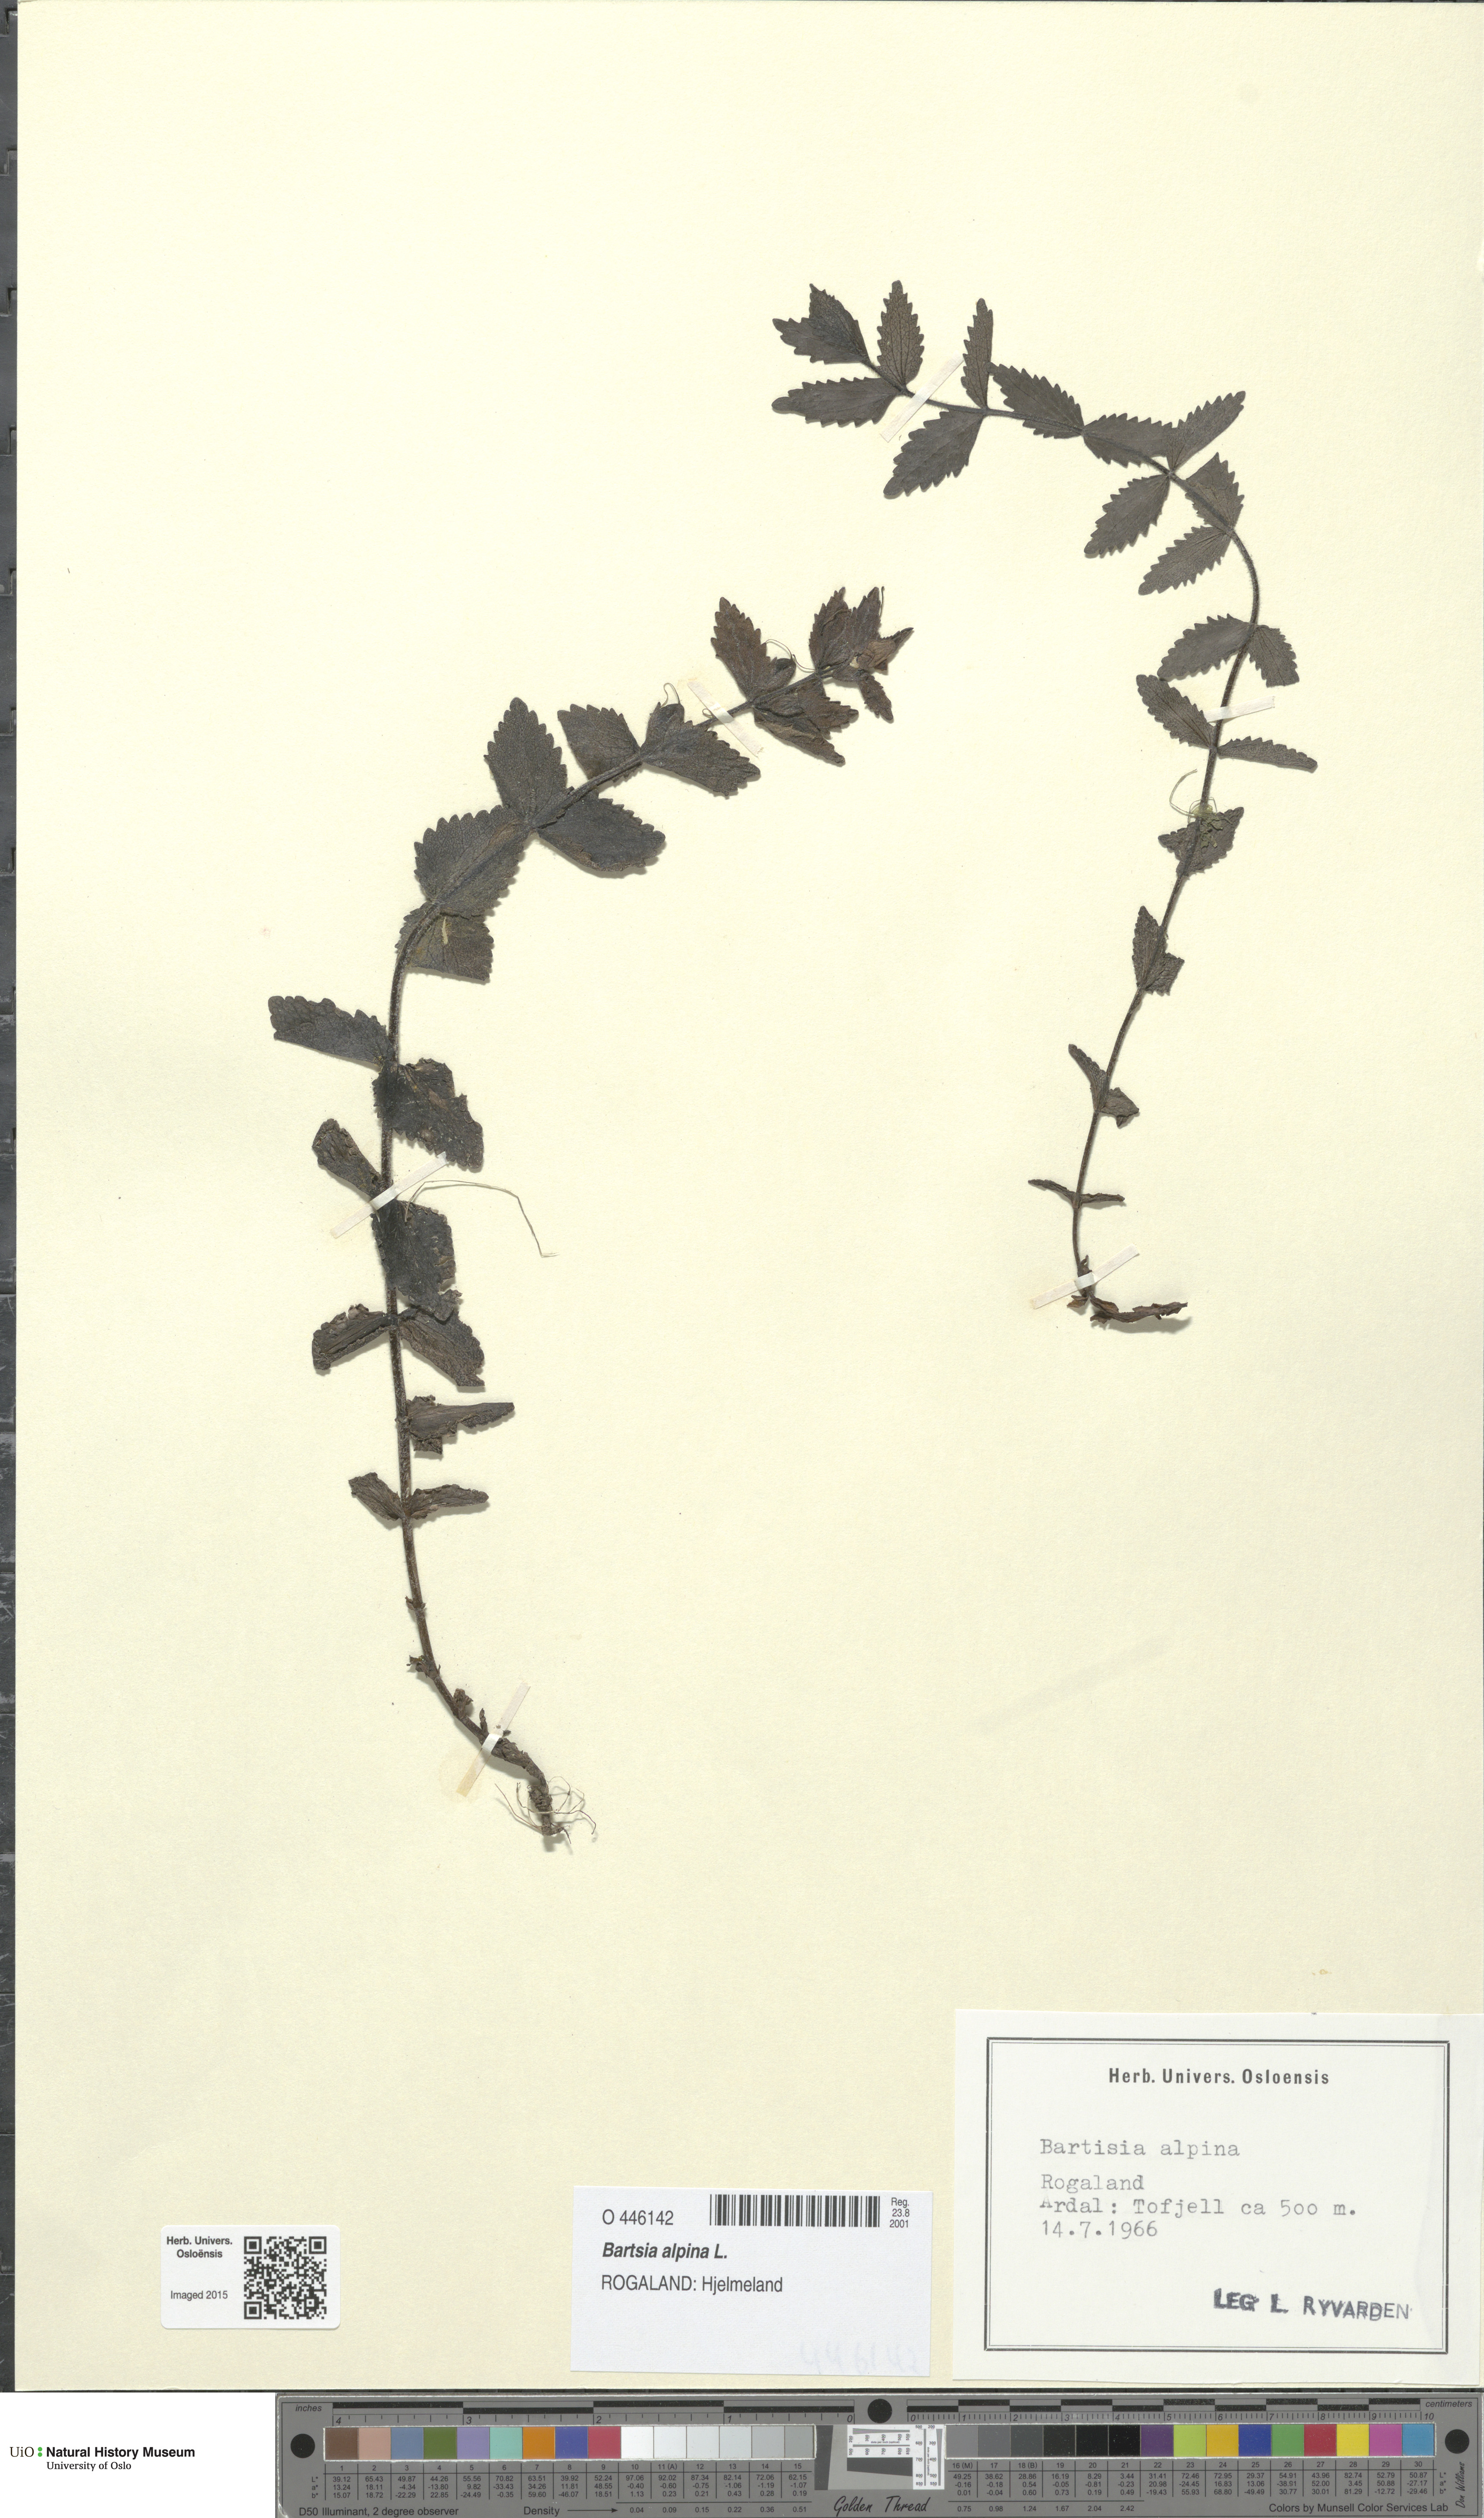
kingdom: Plantae
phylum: Tracheophyta
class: Magnoliopsida
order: Lamiales
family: Orobanchaceae
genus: Bartsia
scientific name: Bartsia alpina
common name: Alpine bartsia
